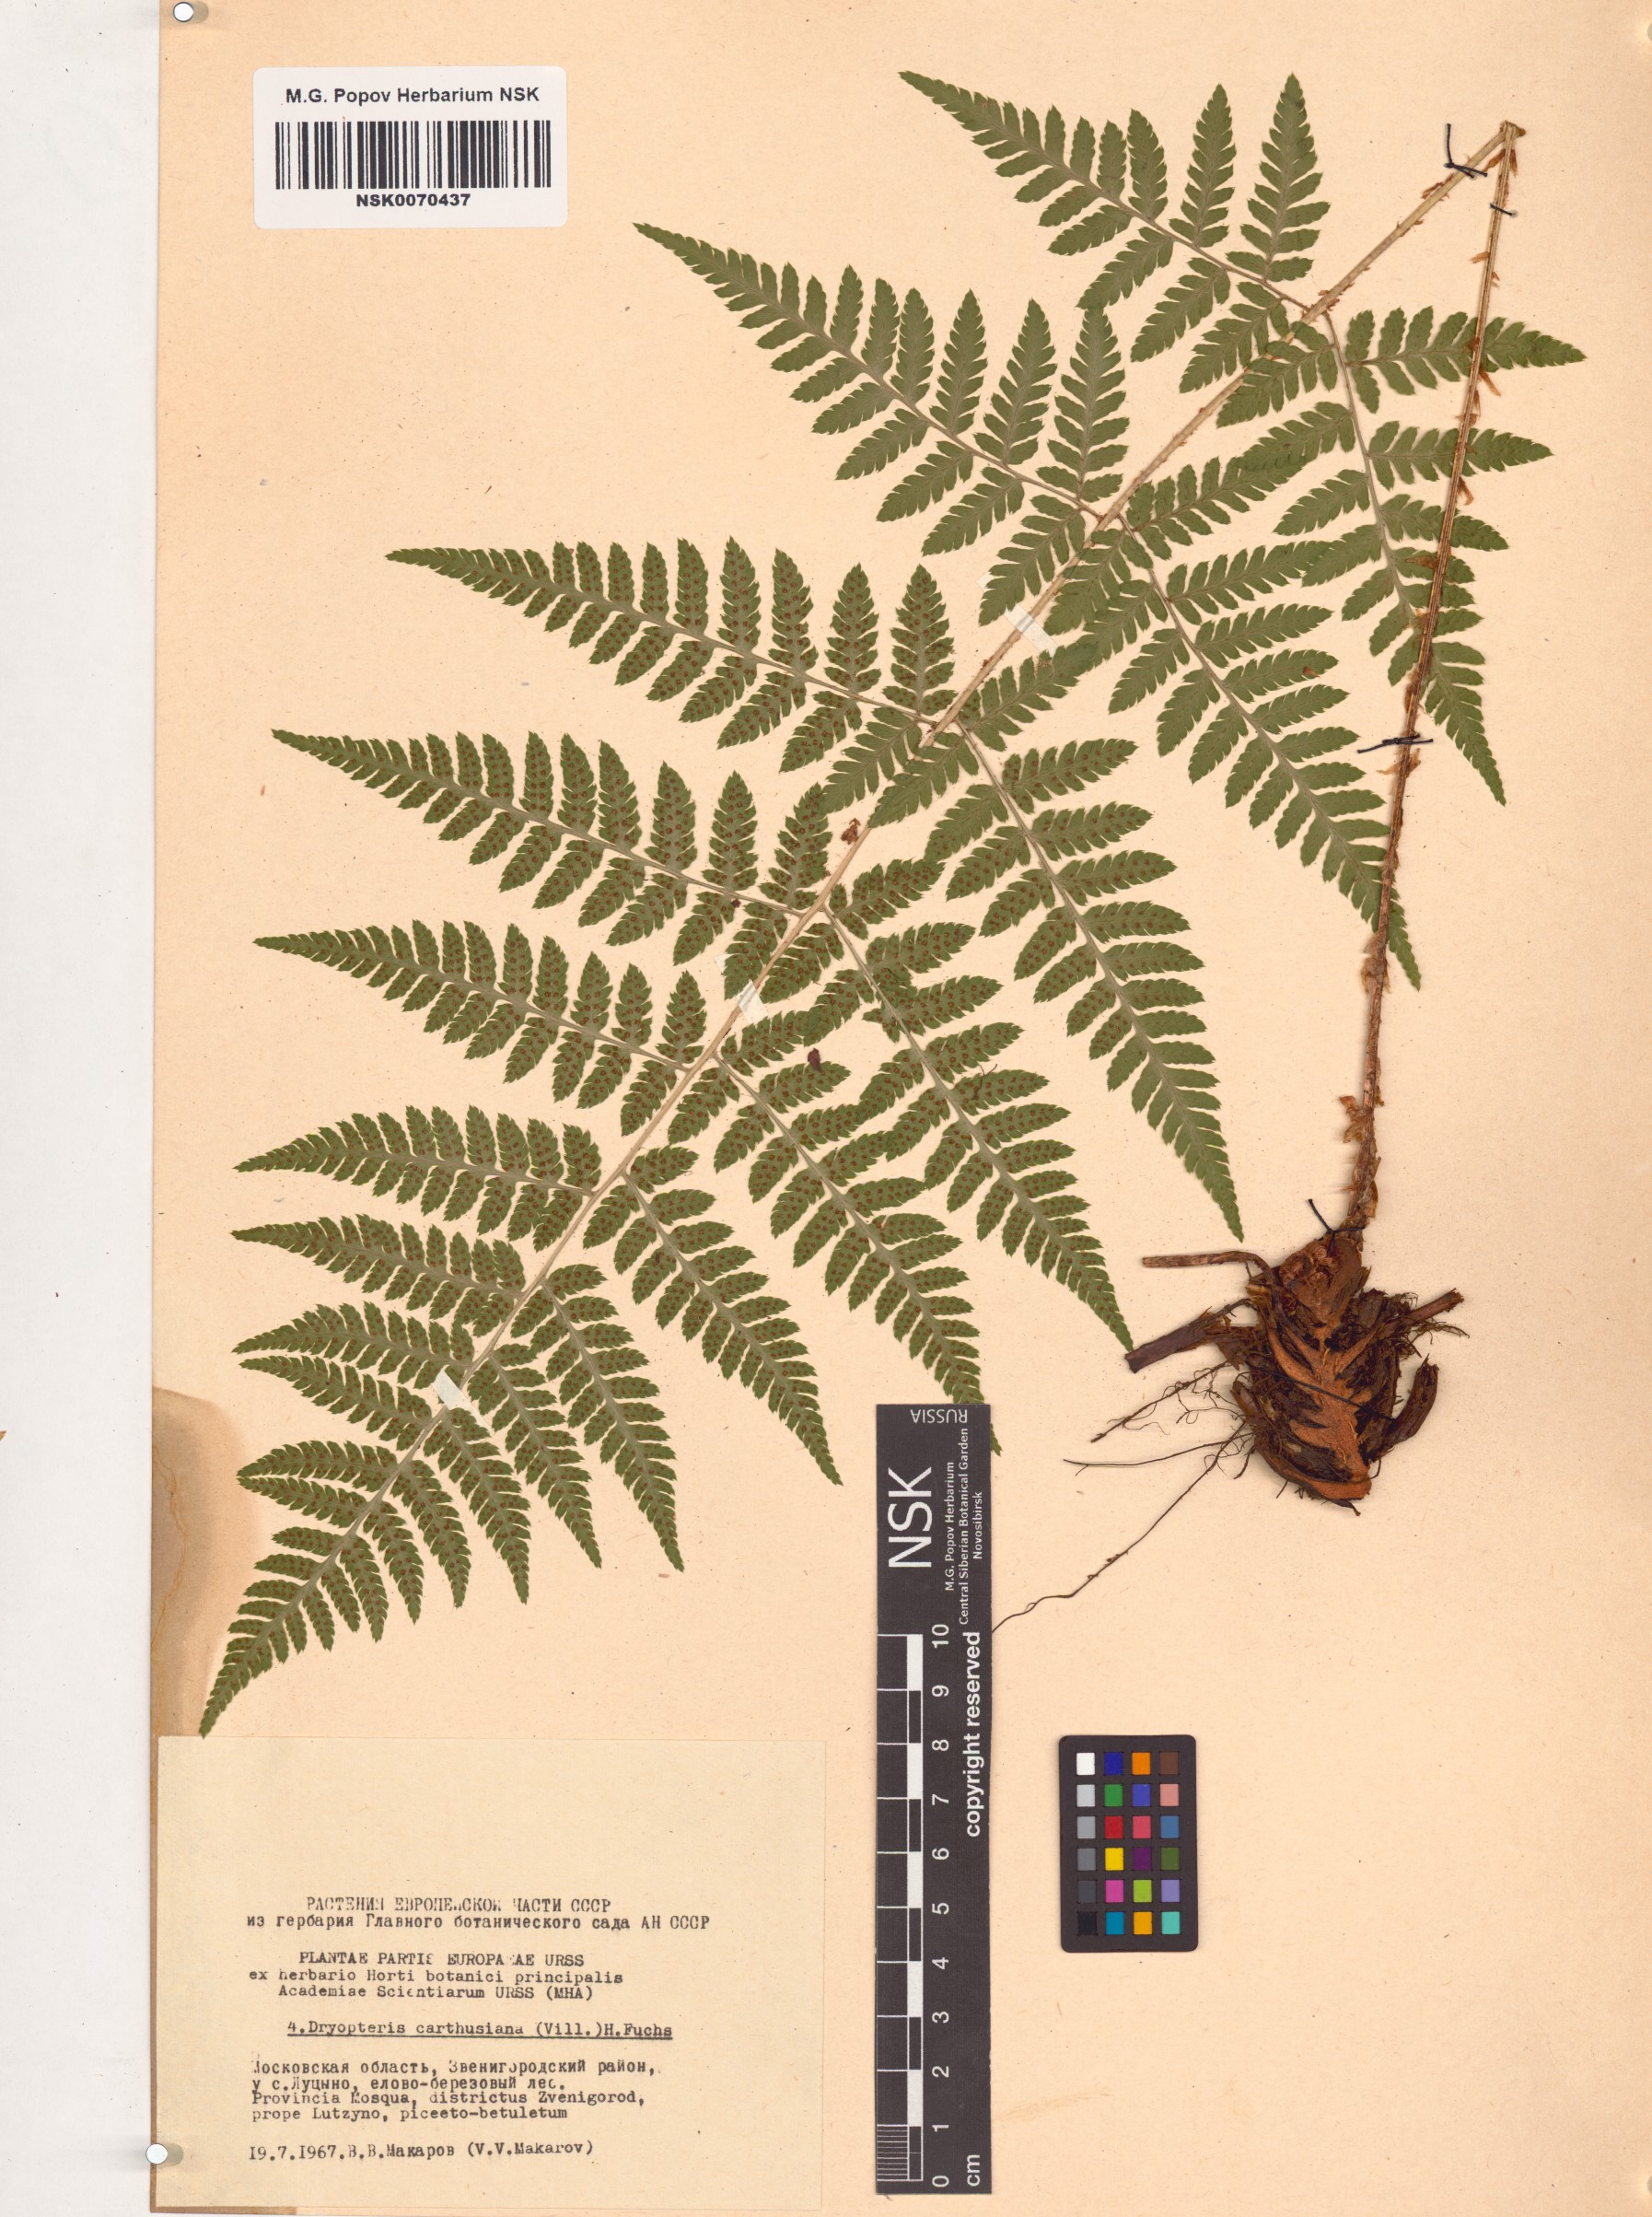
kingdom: Plantae
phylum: Tracheophyta
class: Polypodiopsida
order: Polypodiales
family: Dryopteridaceae
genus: Dryopteris
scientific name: Dryopteris carthusiana
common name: Narrow buckler-fern
